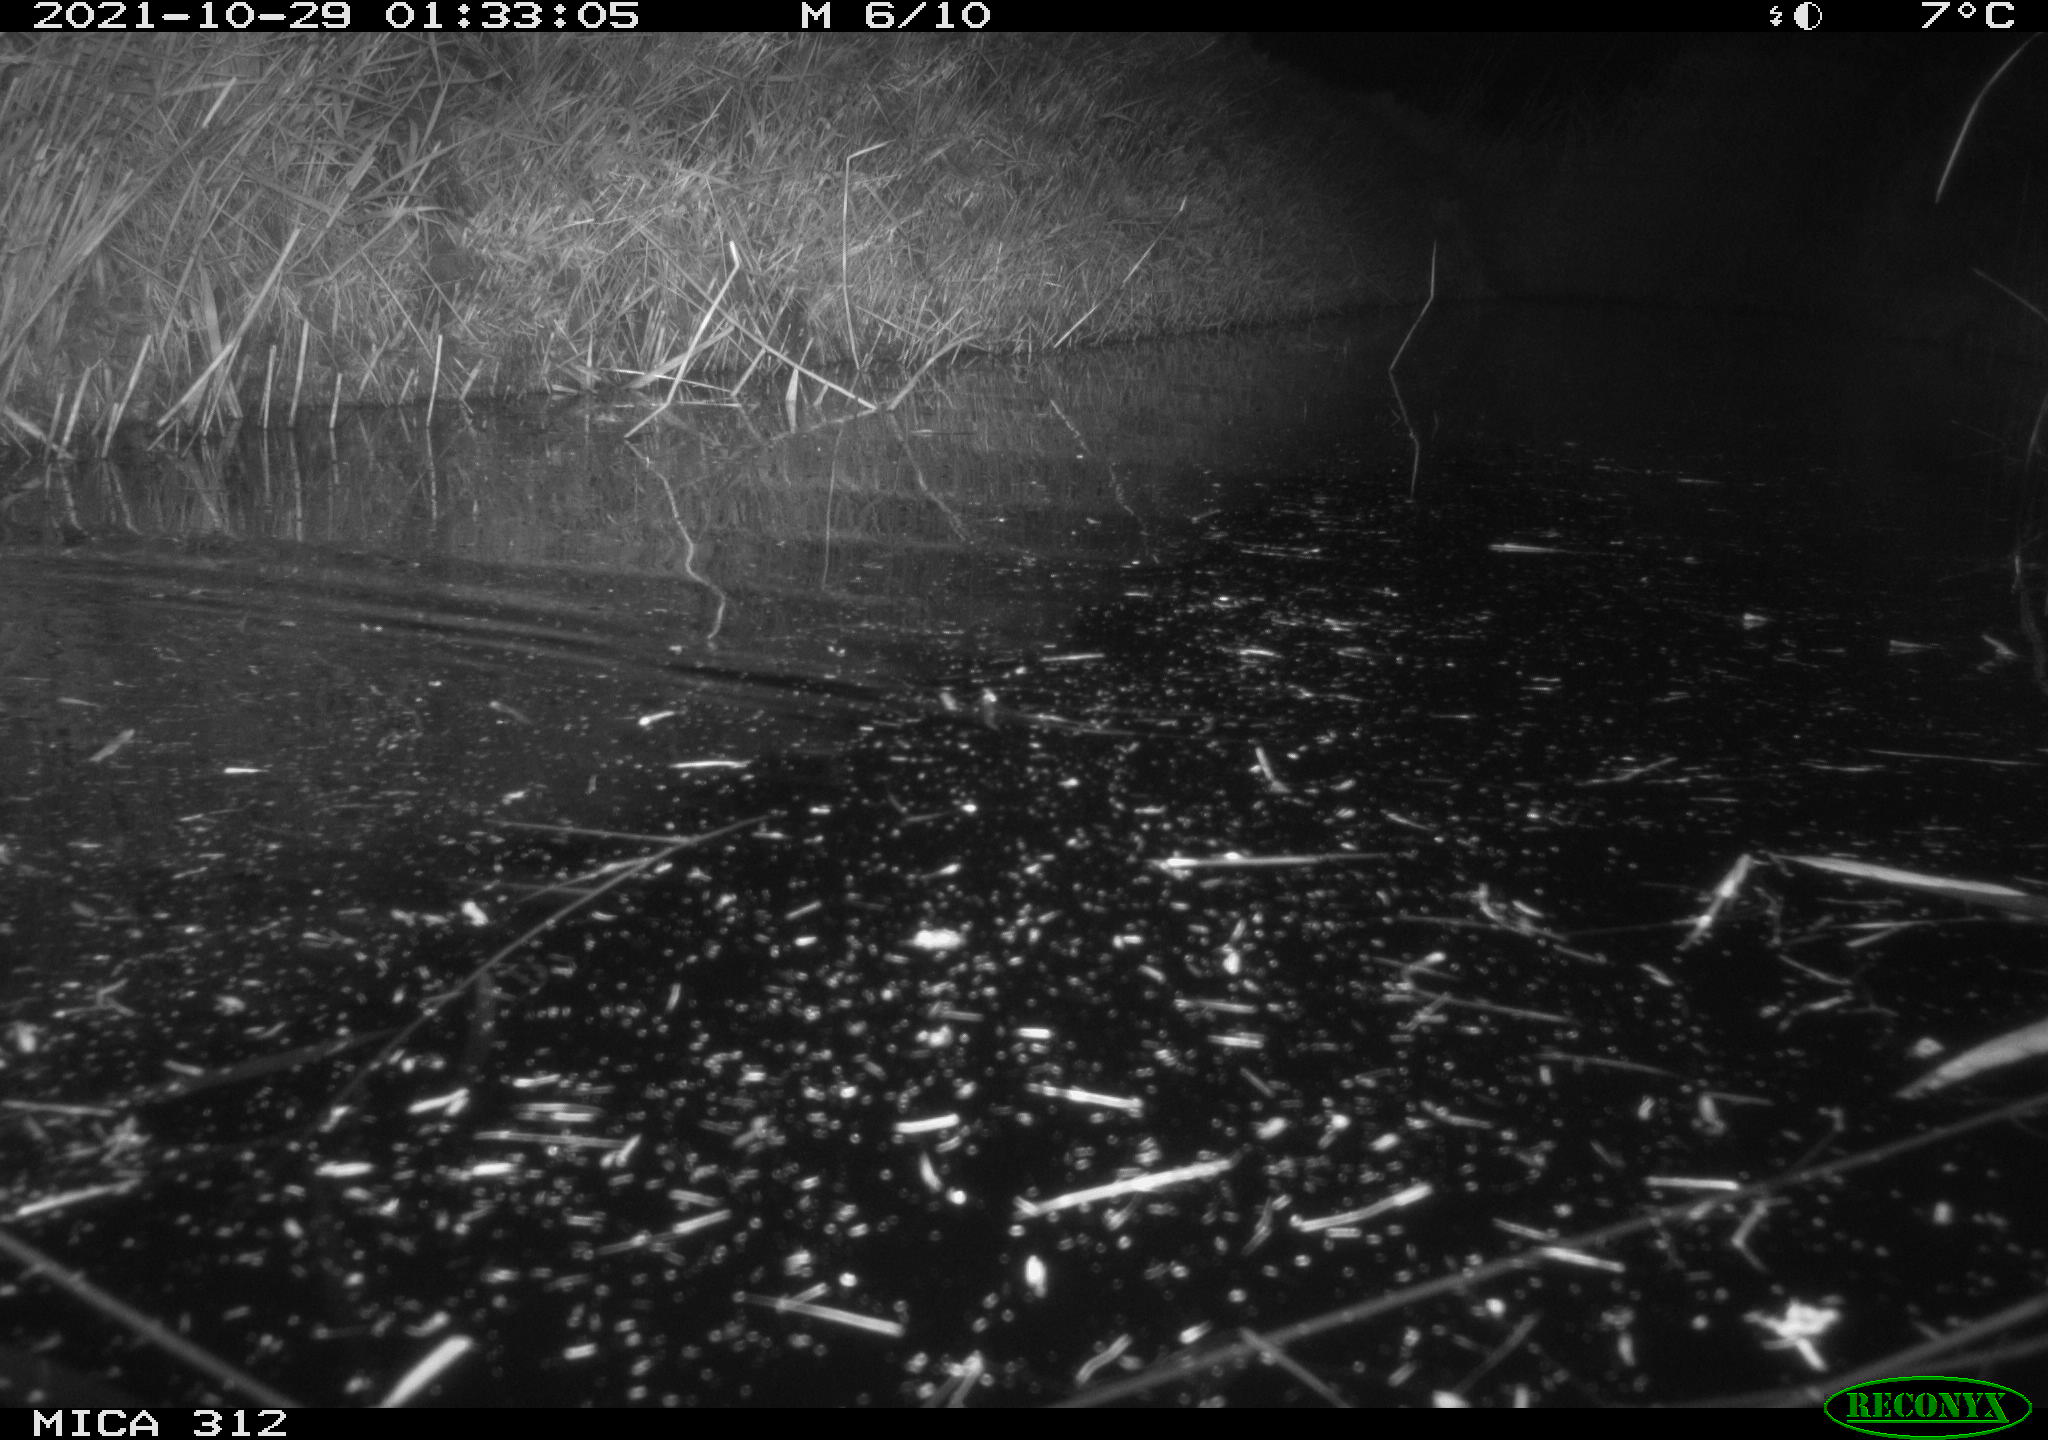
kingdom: Animalia
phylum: Chordata
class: Mammalia
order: Rodentia
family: Muridae
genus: Rattus
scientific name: Rattus norvegicus
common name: Brown rat
